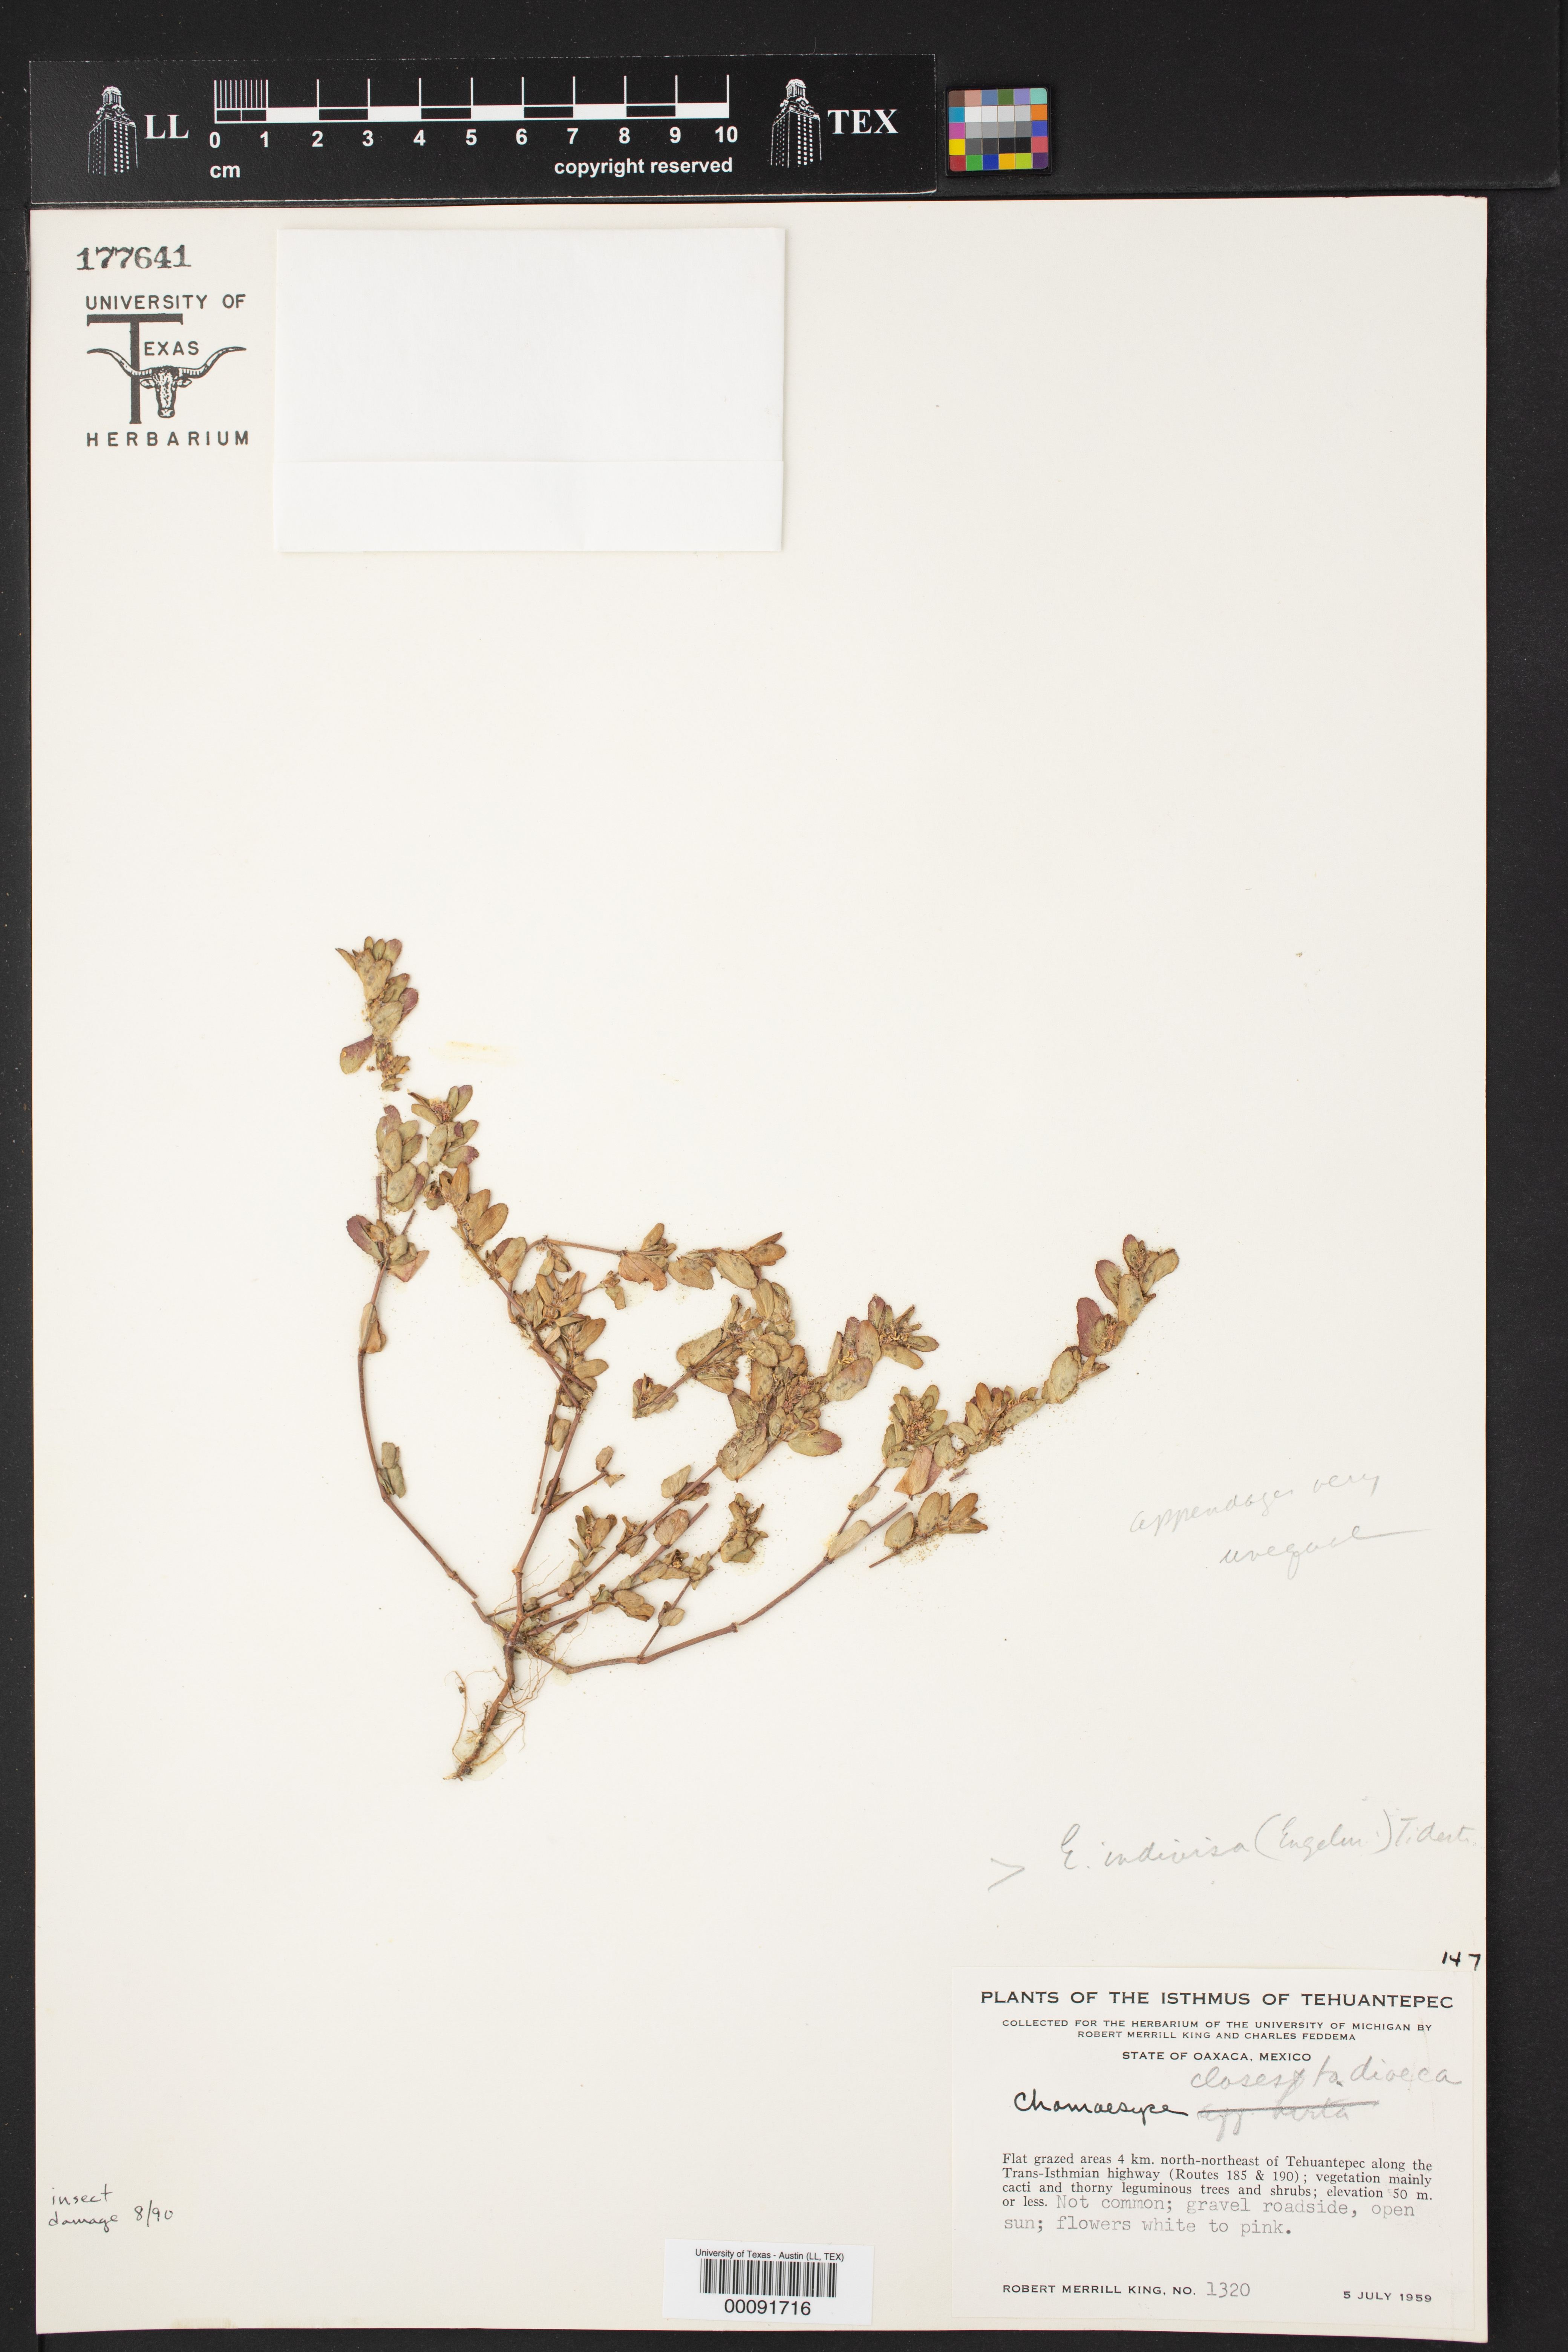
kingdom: Plantae
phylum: Tracheophyta
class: Magnoliopsida
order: Malpighiales
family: Euphorbiaceae
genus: Chamaesyce
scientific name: Chamaesyce
